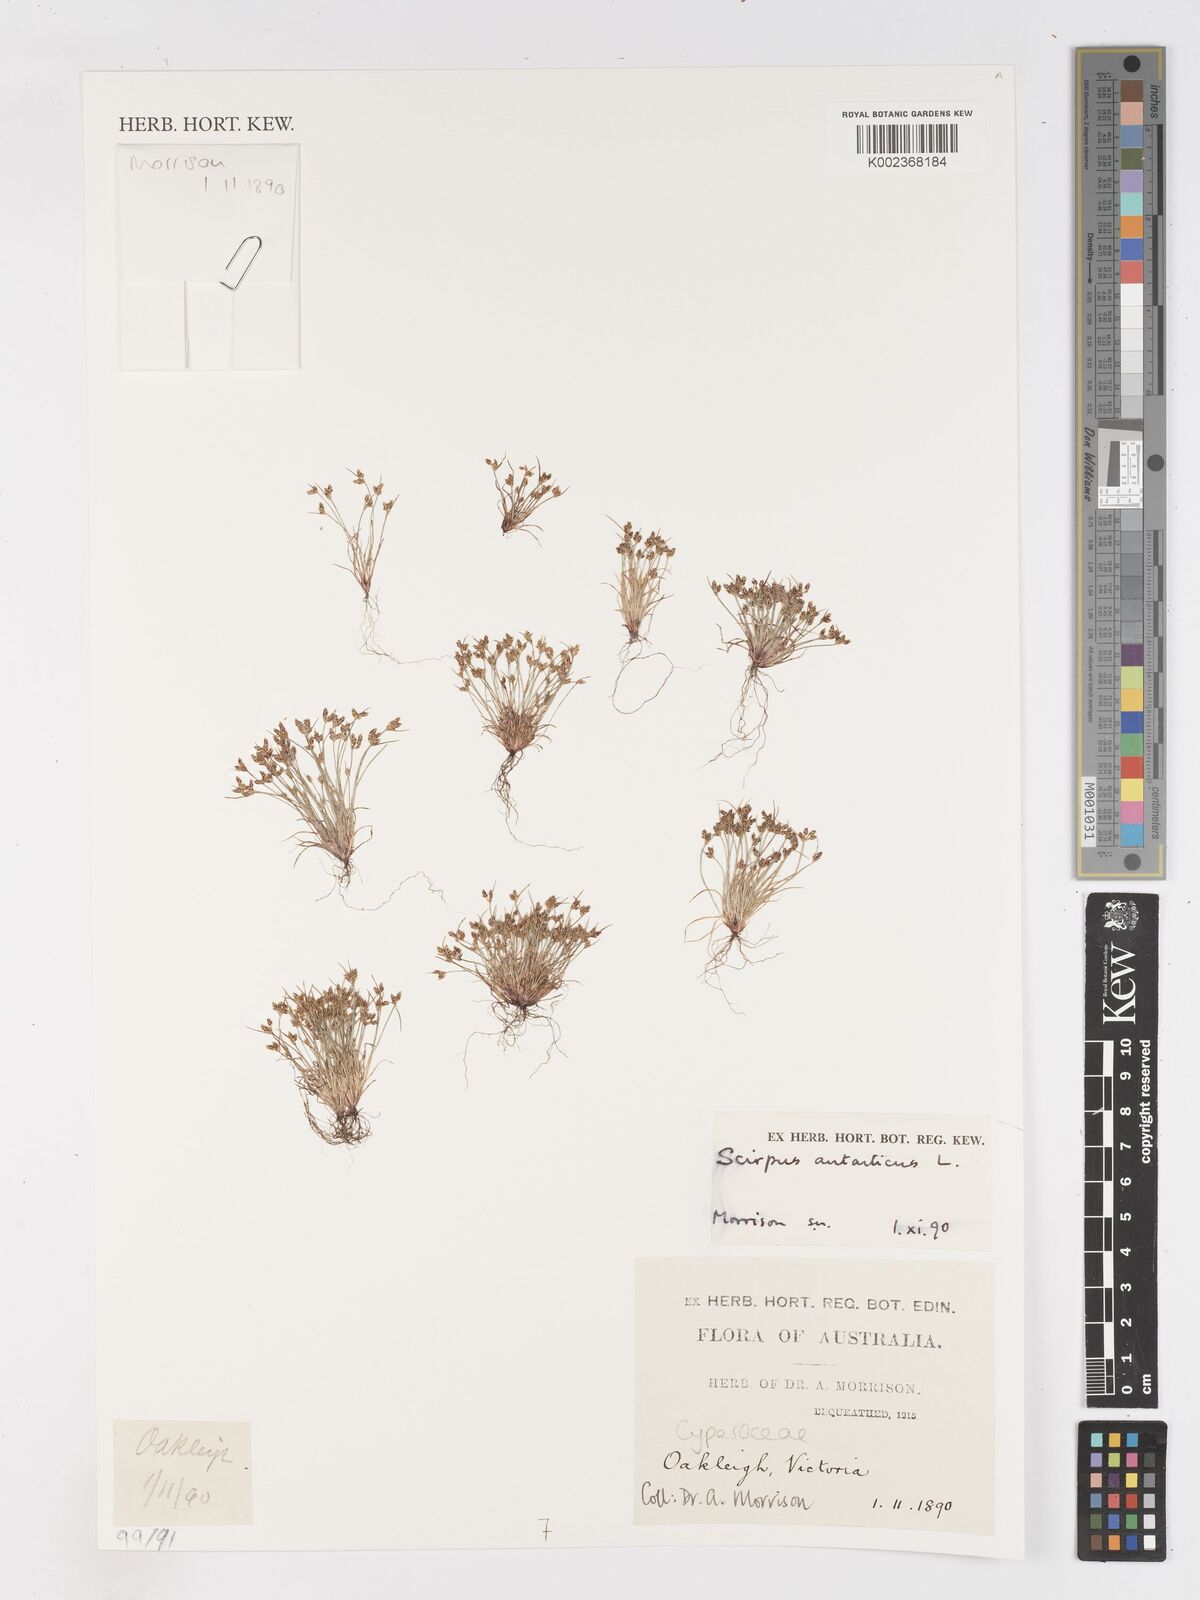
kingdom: Plantae
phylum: Tracheophyta
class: Liliopsida
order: Poales
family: Cyperaceae
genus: Isolepis
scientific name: Isolepis antarctica
